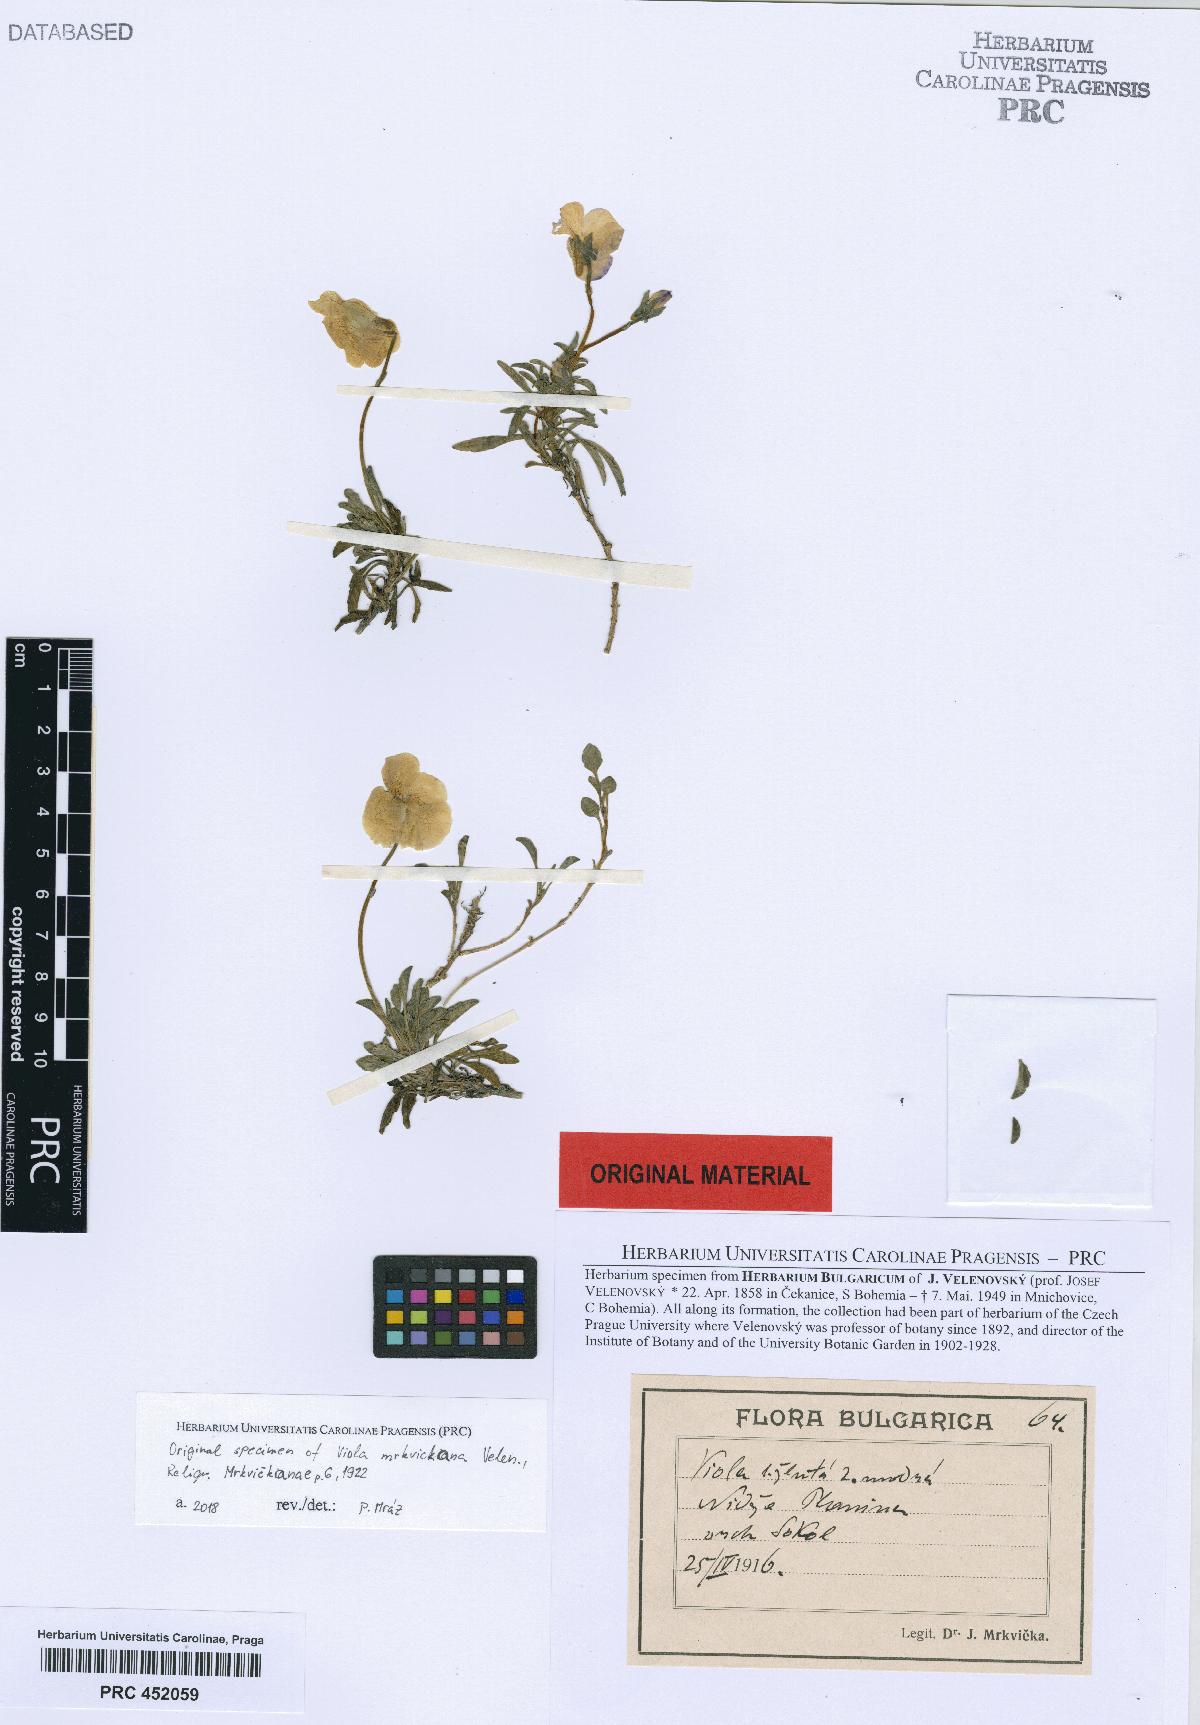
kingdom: Plantae
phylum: Tracheophyta
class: Magnoliopsida
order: Malpighiales
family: Violaceae
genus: Viola
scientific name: Viola herzogii
